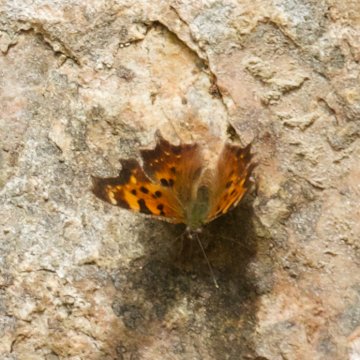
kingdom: Animalia
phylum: Arthropoda
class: Insecta
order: Lepidoptera
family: Nymphalidae
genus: Polygonia
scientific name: Polygonia faunus
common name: Green Comma
